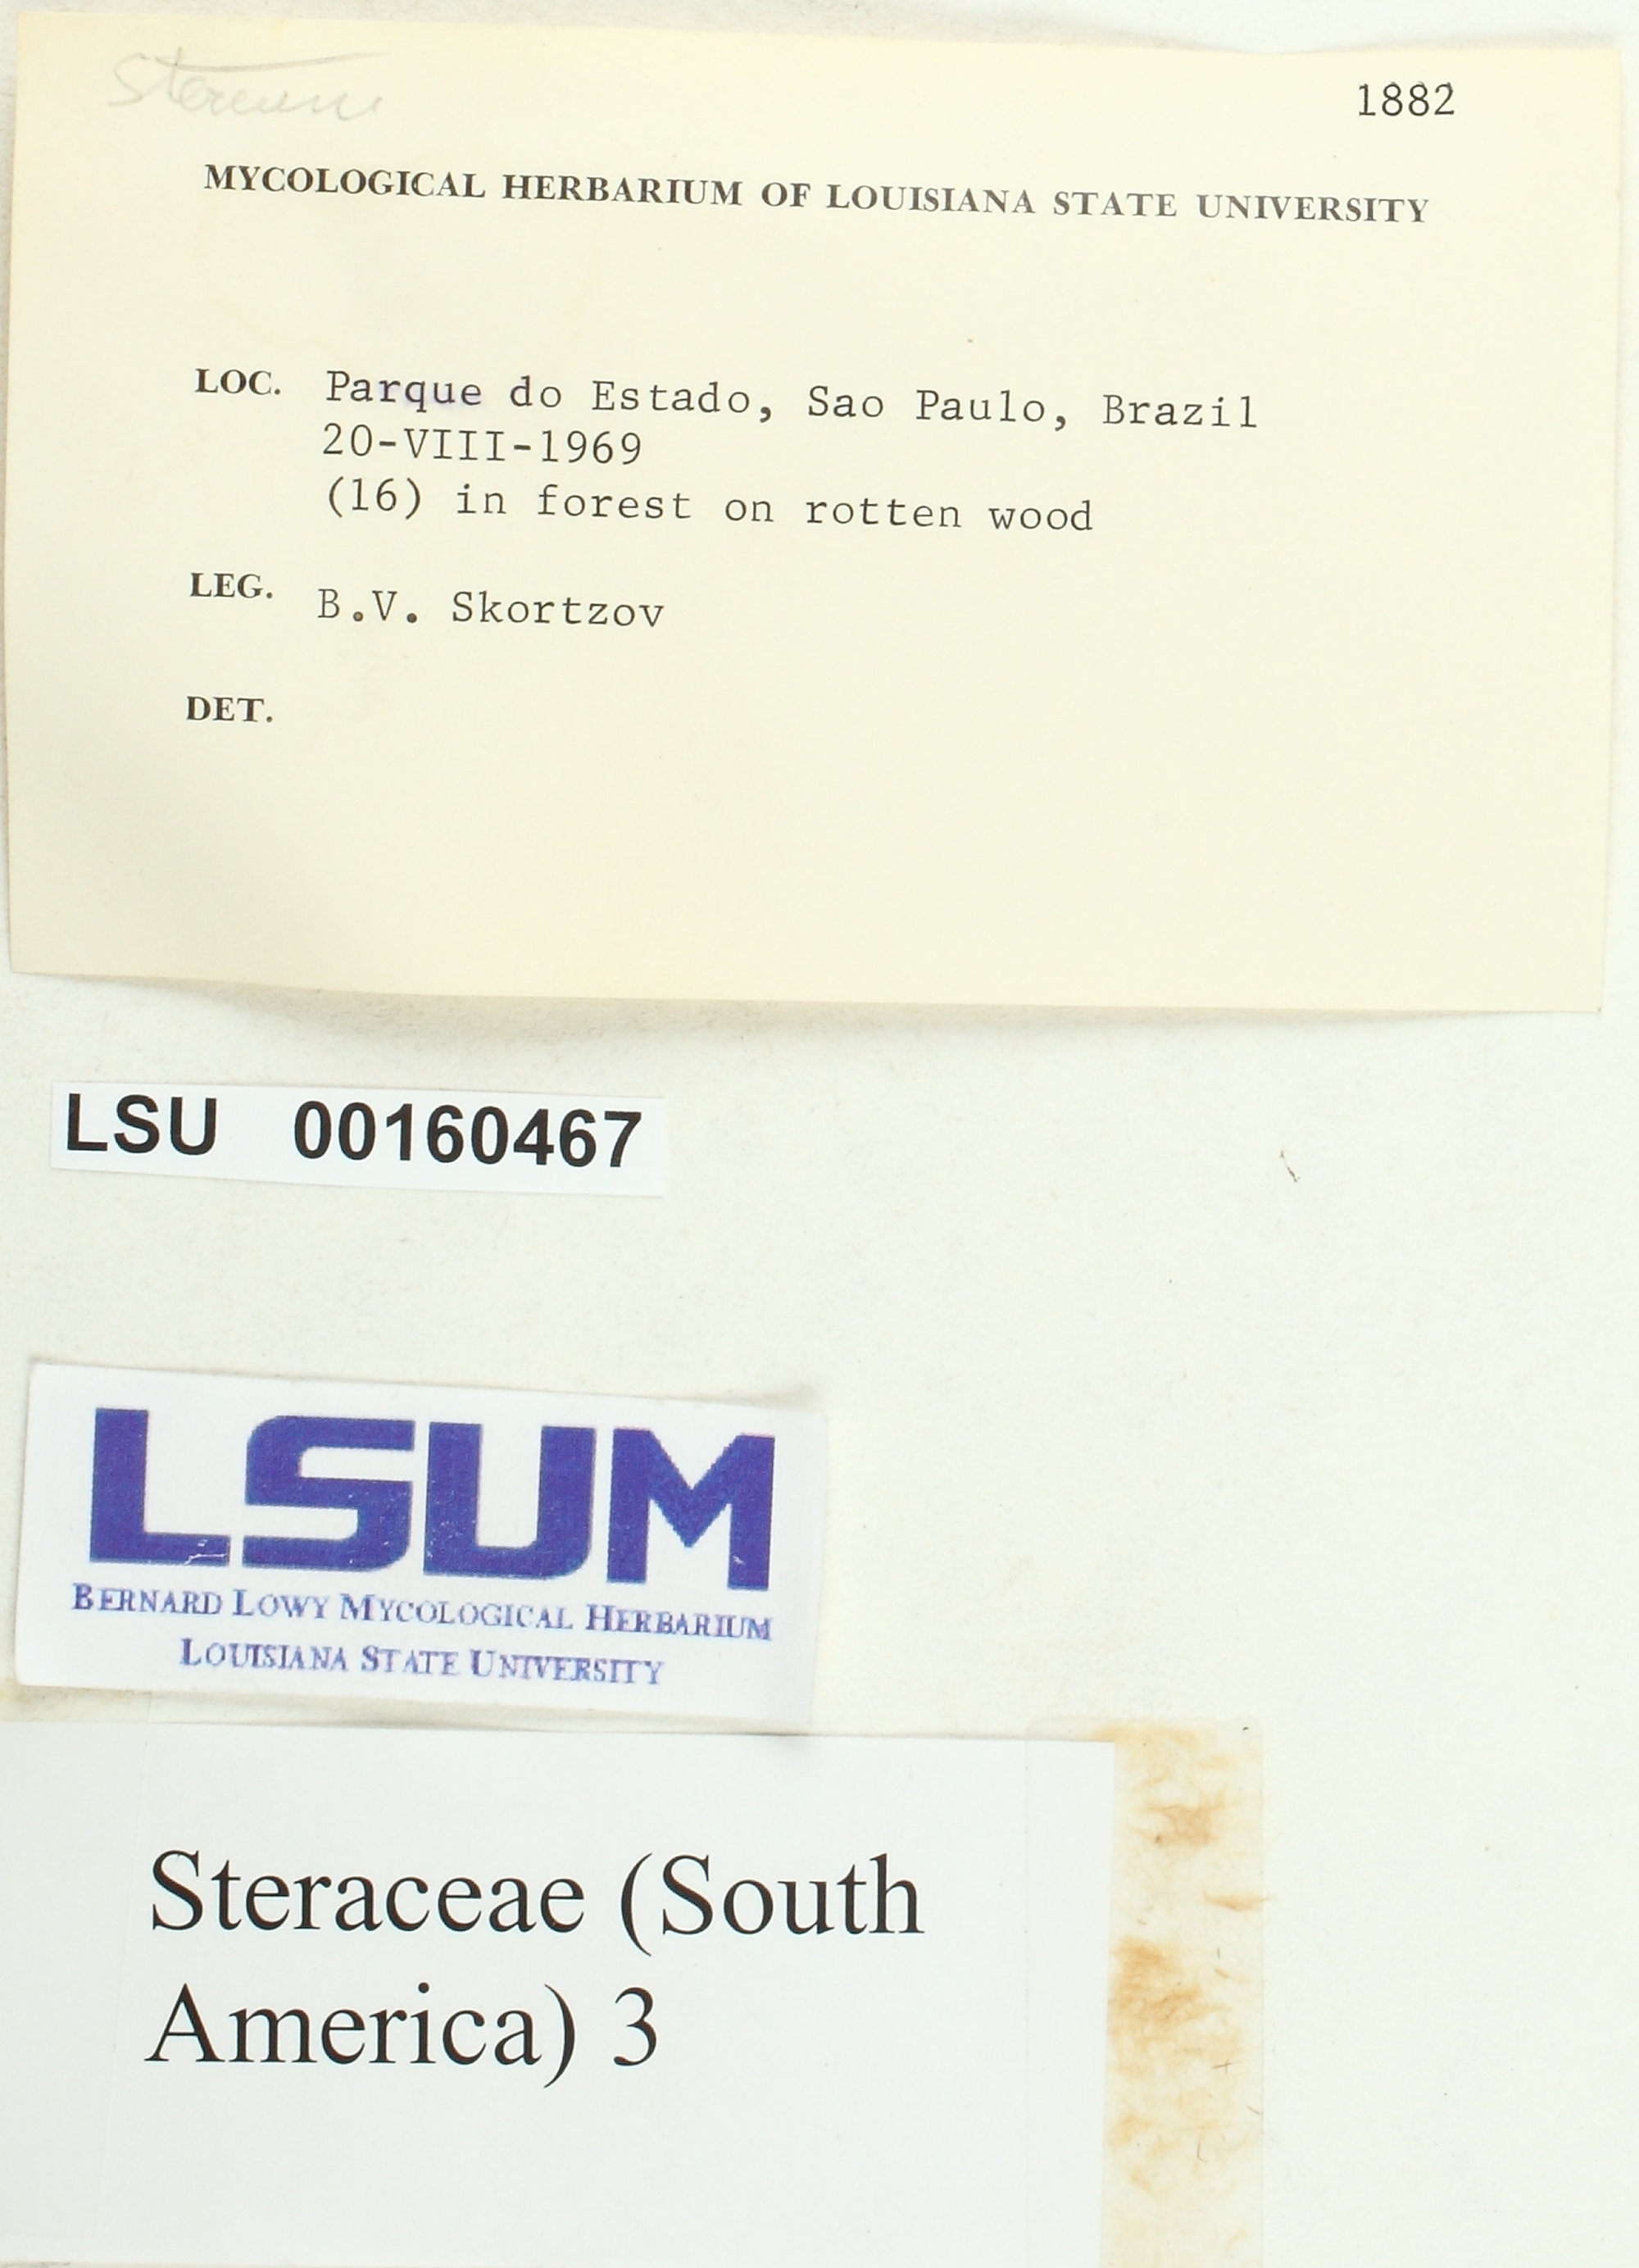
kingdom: Fungi
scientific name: Fungi
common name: Fungi
